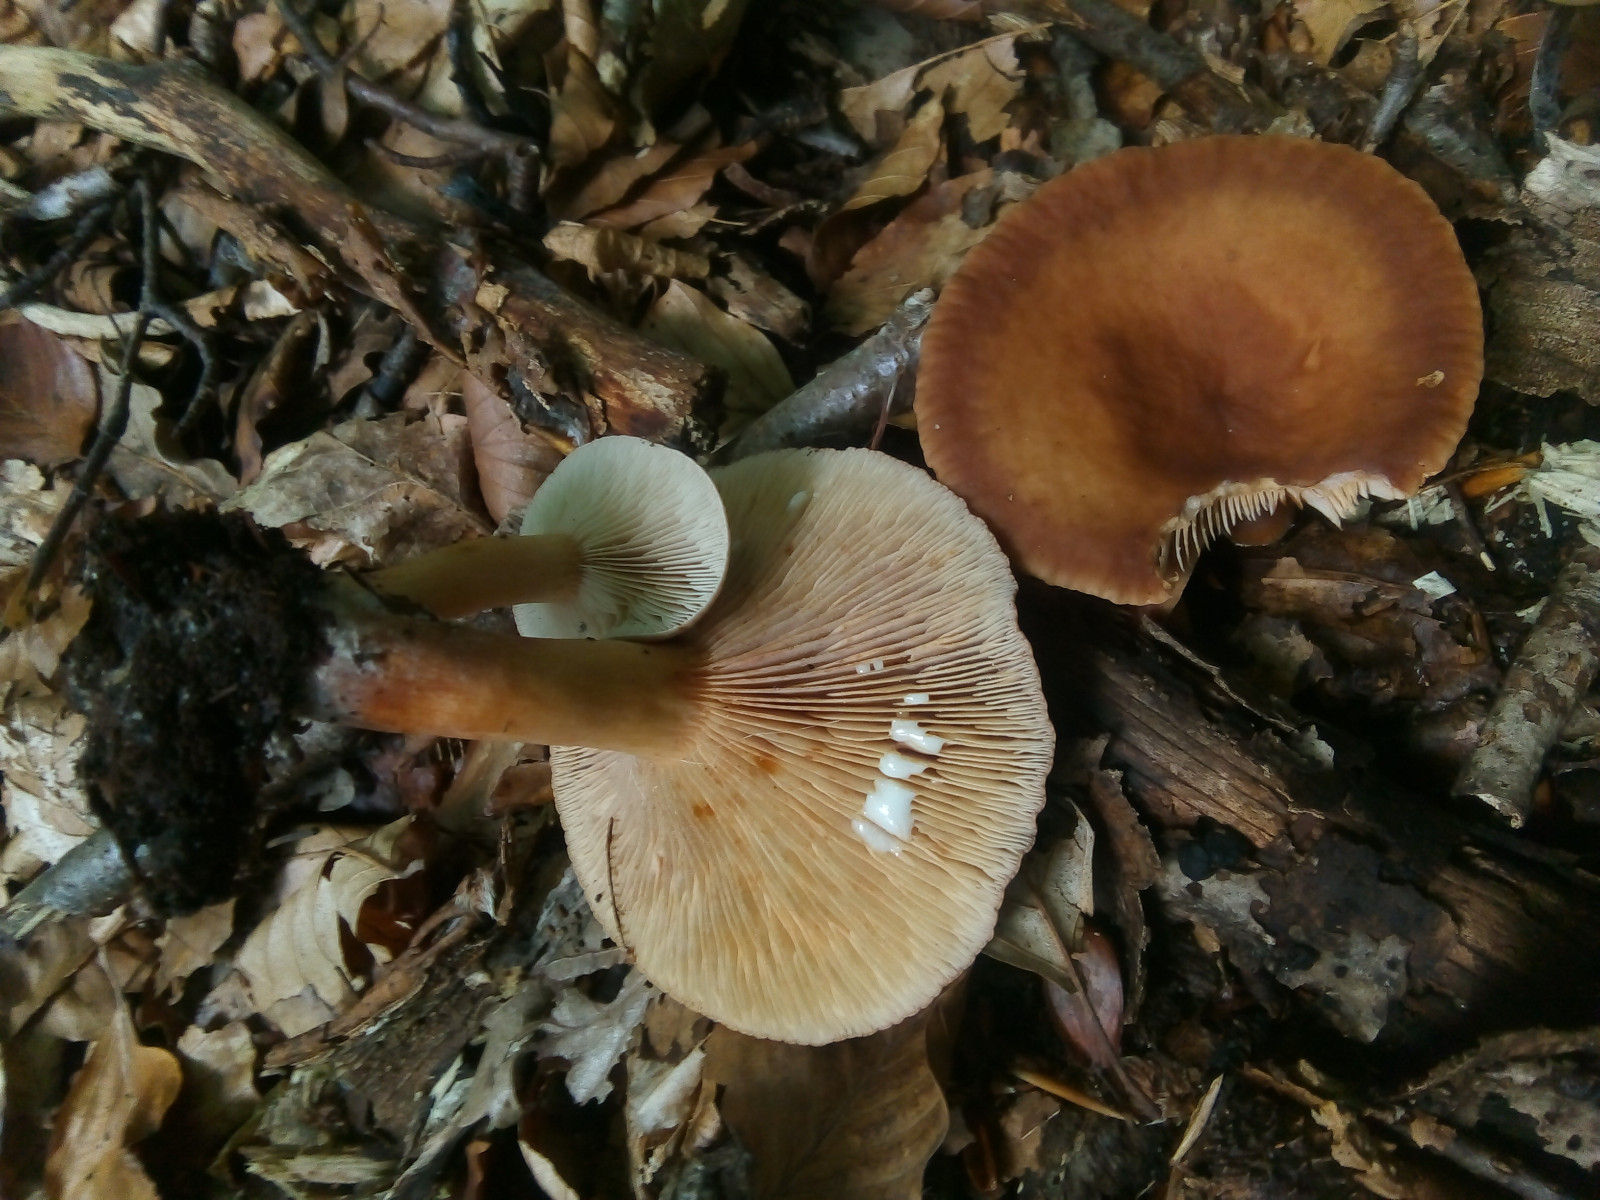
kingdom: Fungi
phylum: Basidiomycota
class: Agaricomycetes
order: Russulales
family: Russulaceae
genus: Lactarius
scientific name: Lactarius subdulcis
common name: sødlig mælkehat
